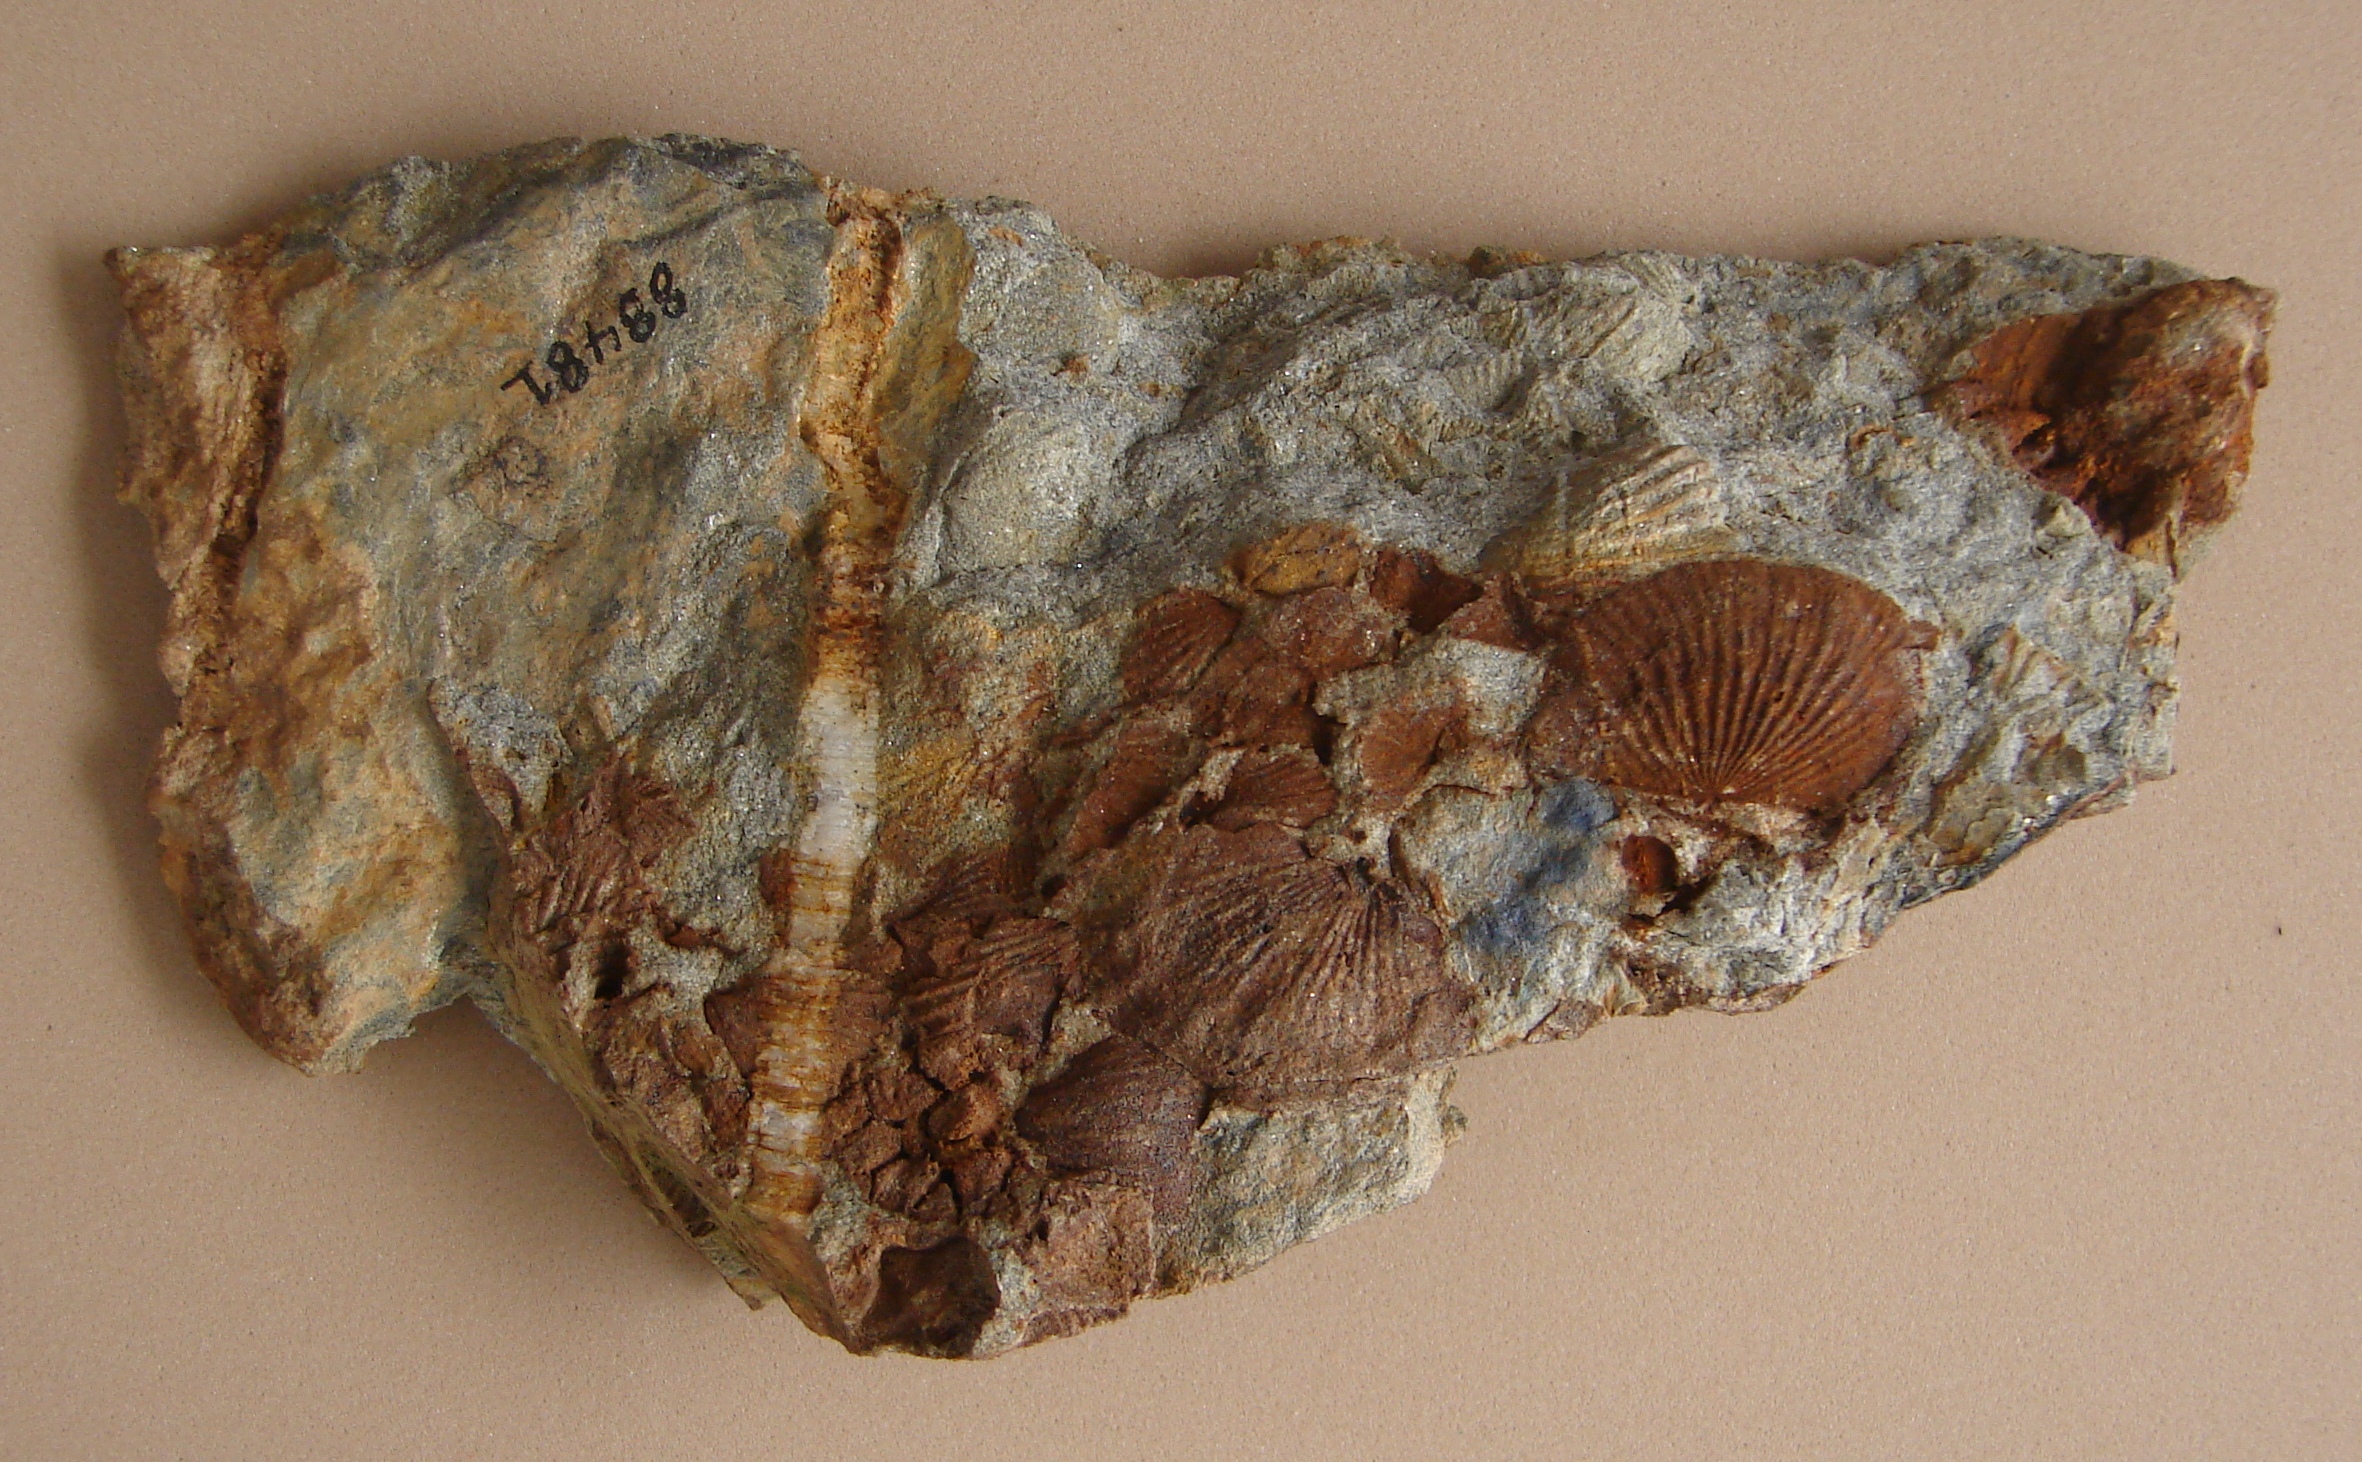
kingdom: Animalia
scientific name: Animalia
